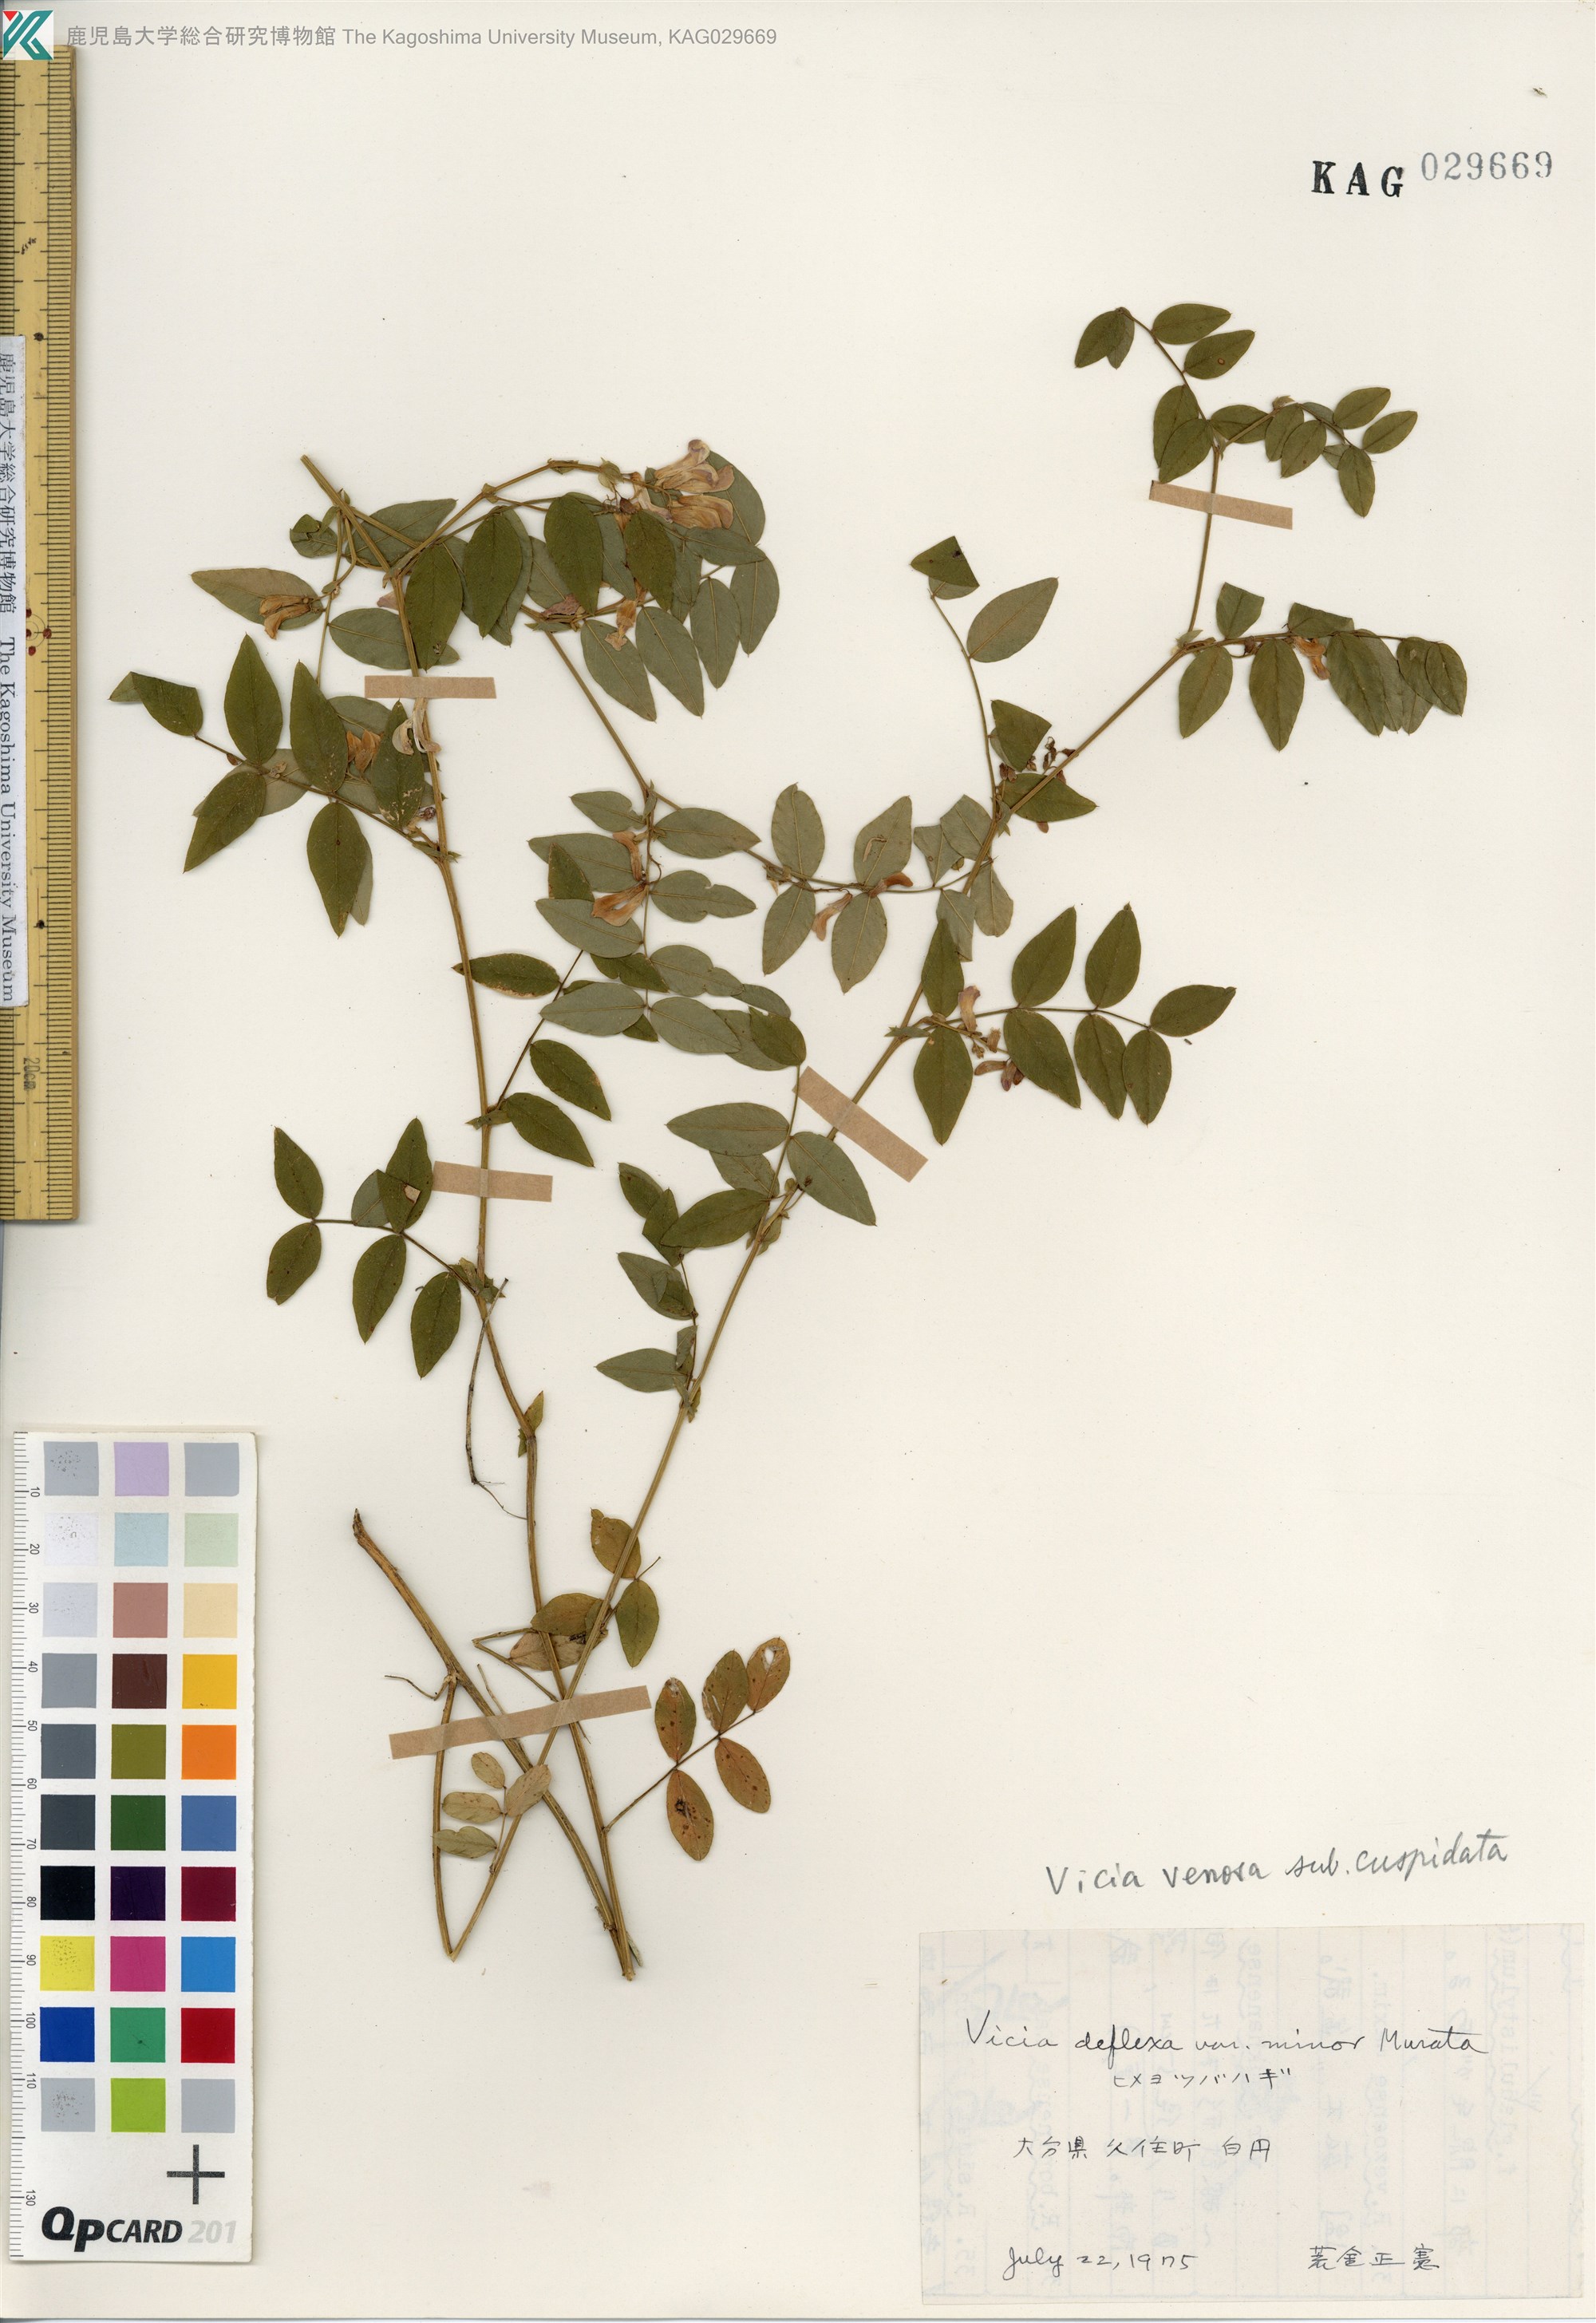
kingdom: Plantae
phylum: Tracheophyta
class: Magnoliopsida
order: Fabales
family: Fabaceae
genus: Vicia
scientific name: Vicia venosa
